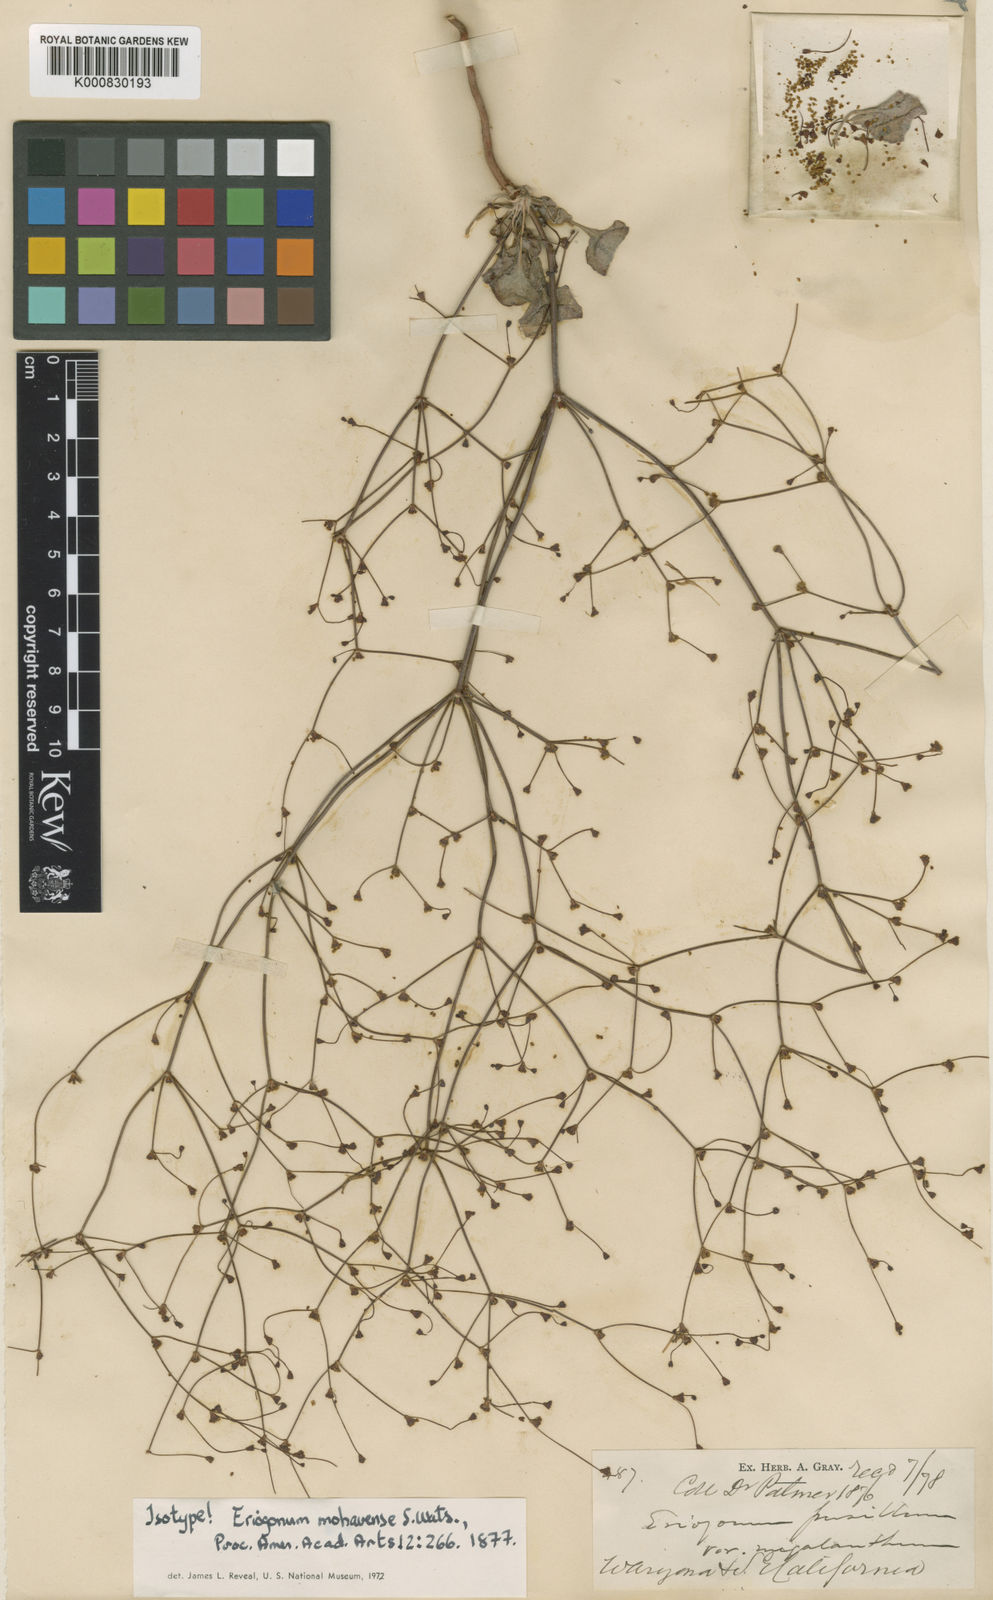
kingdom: Plantae
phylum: Tracheophyta
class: Magnoliopsida
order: Caryophyllales
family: Polygonaceae
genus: Eriogonum
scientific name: Eriogonum mohavense
